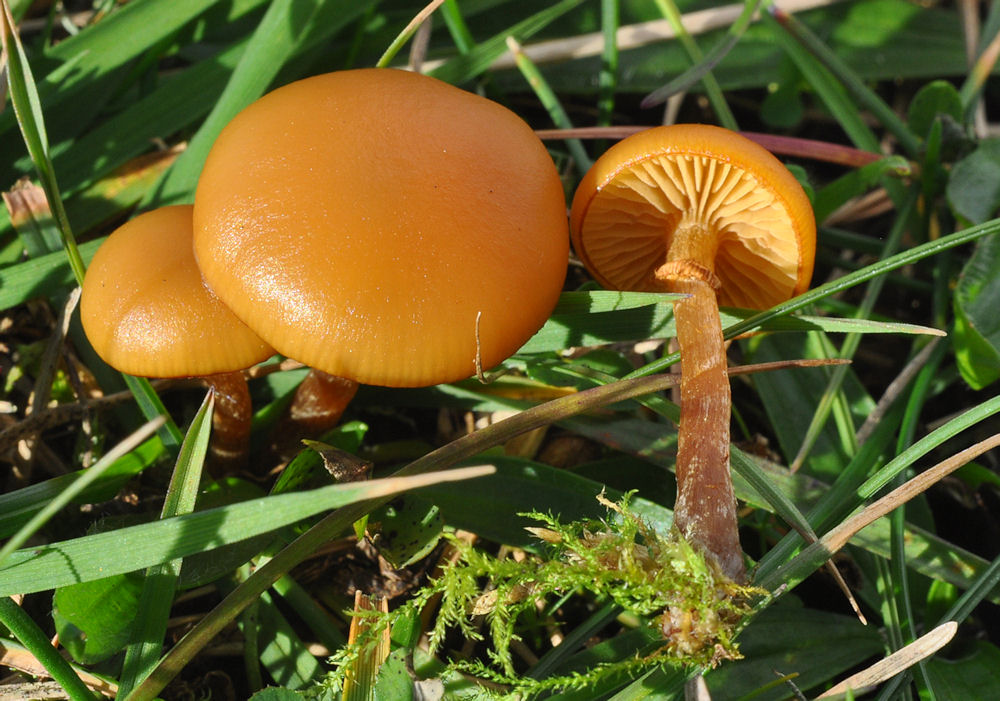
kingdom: Fungi
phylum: Basidiomycota
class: Agaricomycetes
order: Agaricales
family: Hymenogastraceae
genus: Galerina
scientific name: Galerina marginata
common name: randbæltet hjelmhat
